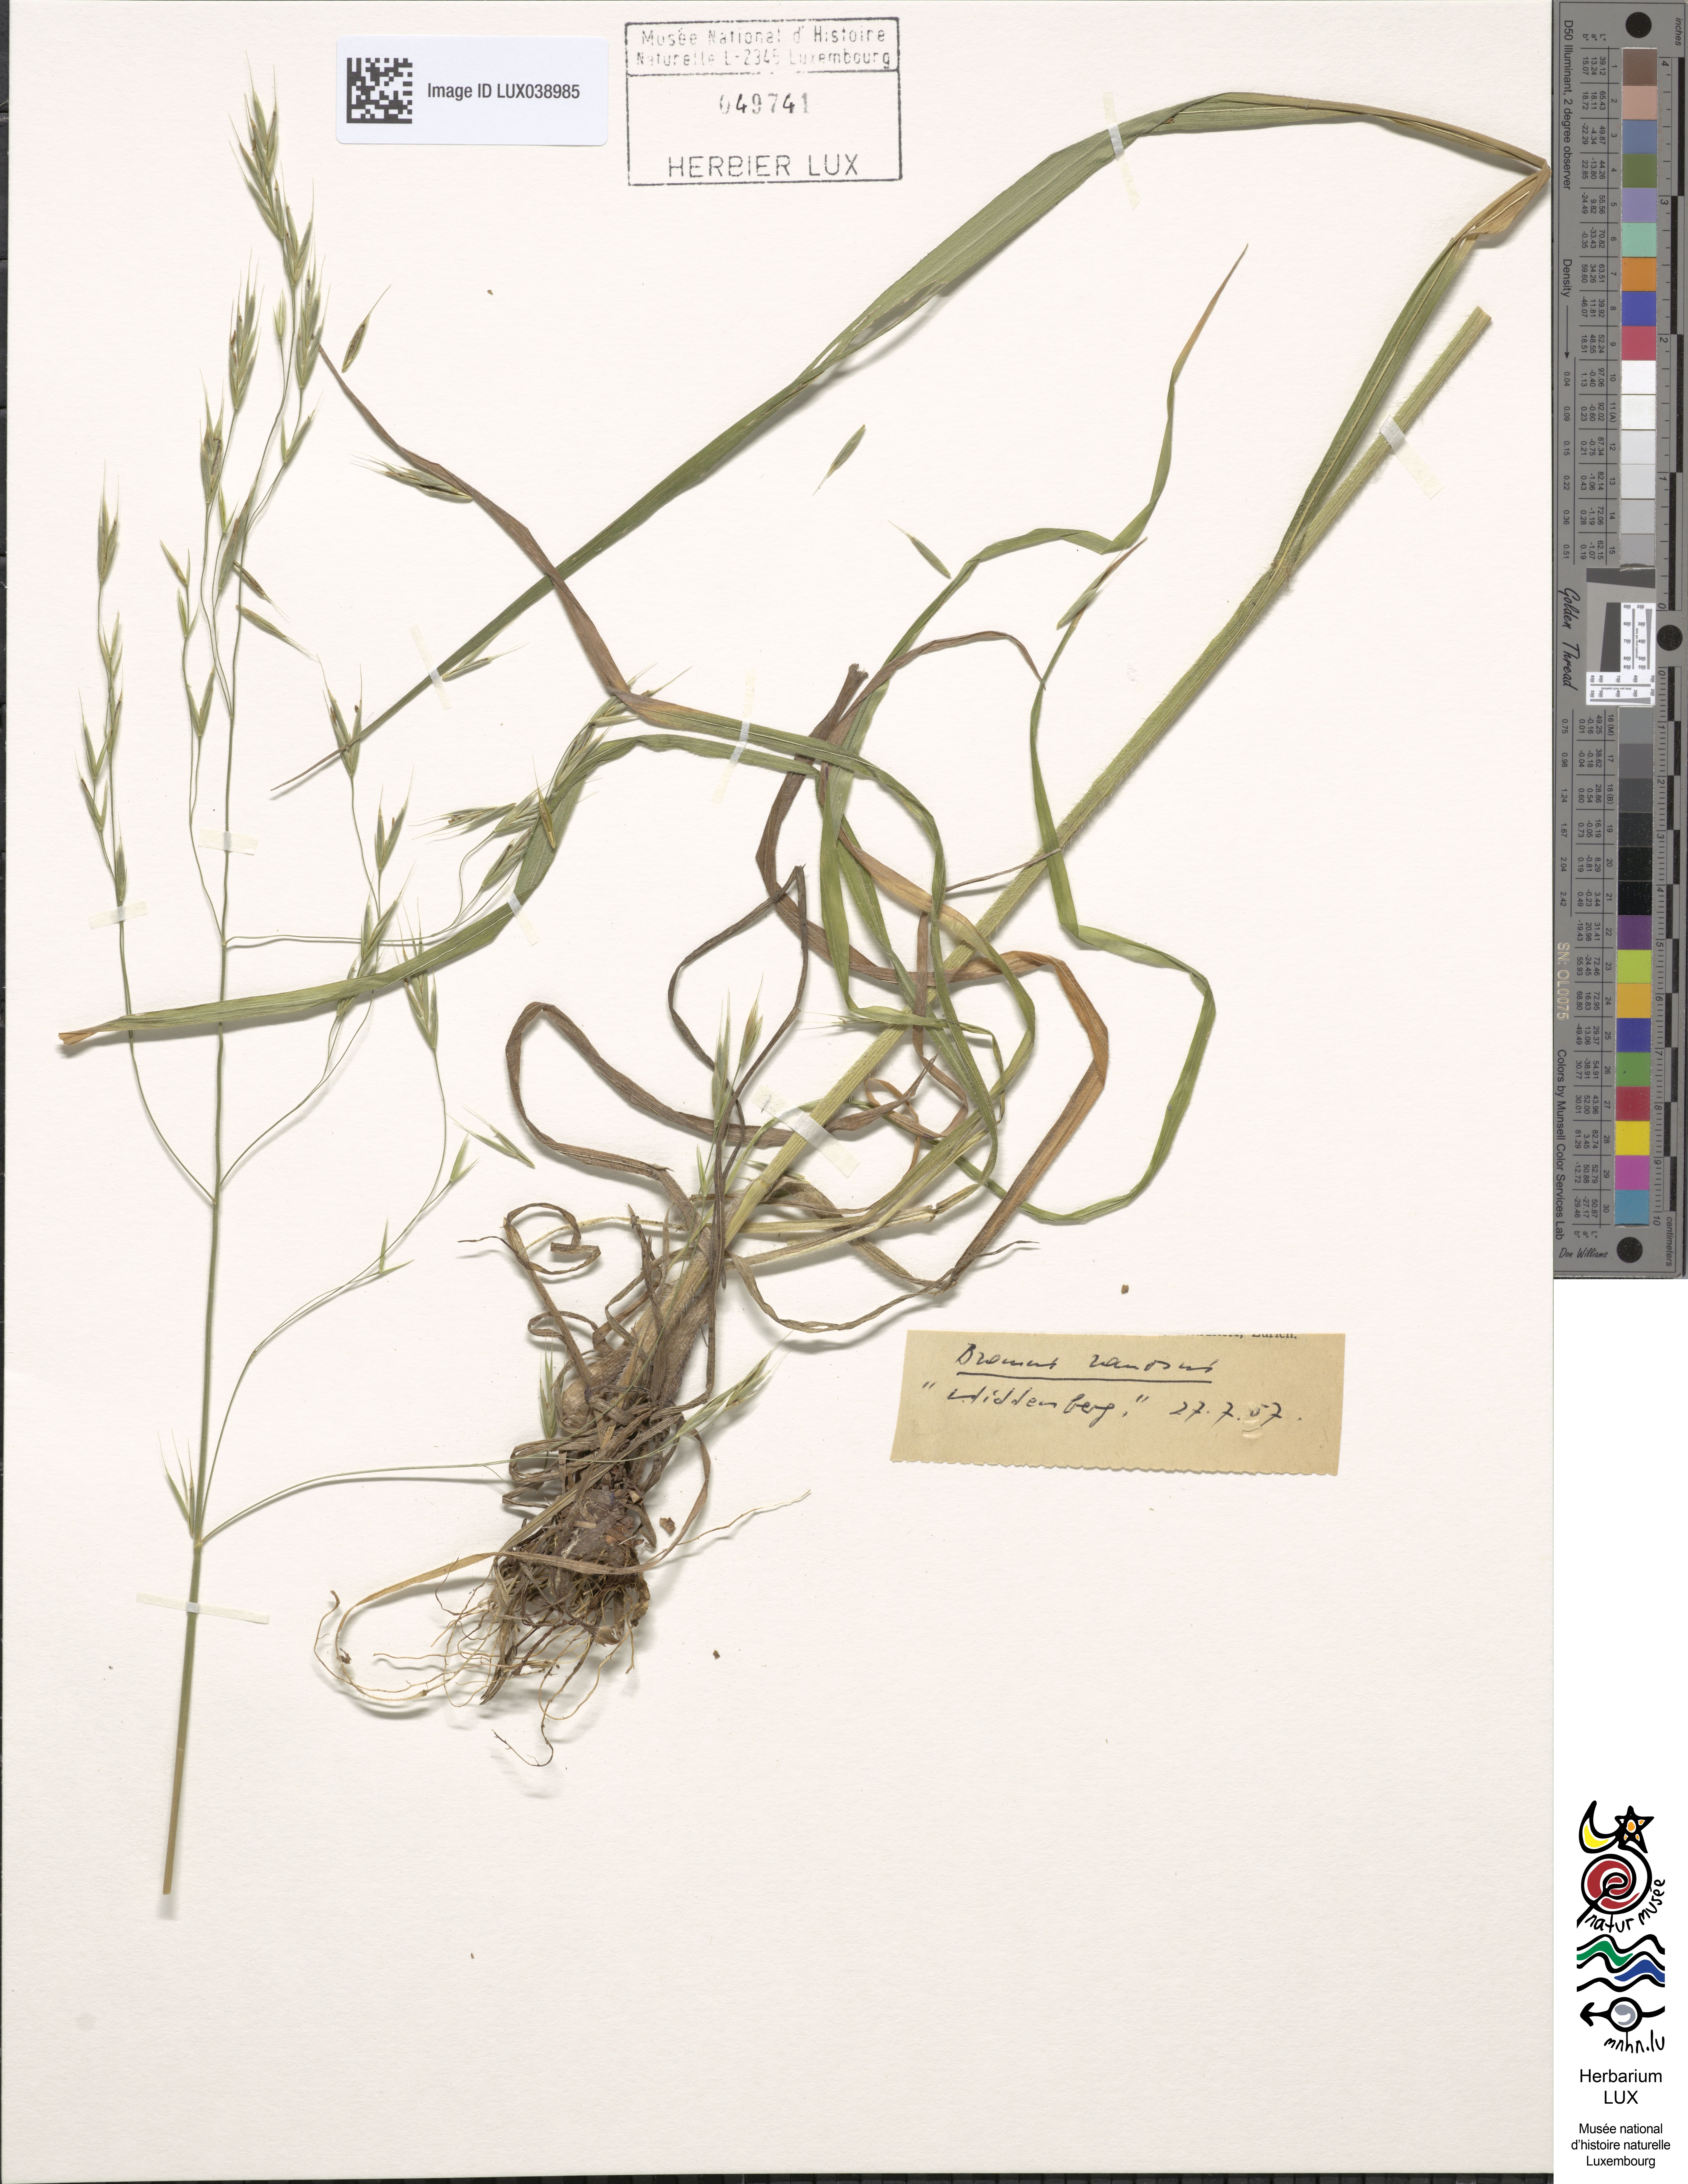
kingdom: Plantae
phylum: Tracheophyta
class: Liliopsida
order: Poales
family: Poaceae
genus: Bromus
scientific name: Bromus ramosus
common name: Hairy brome
